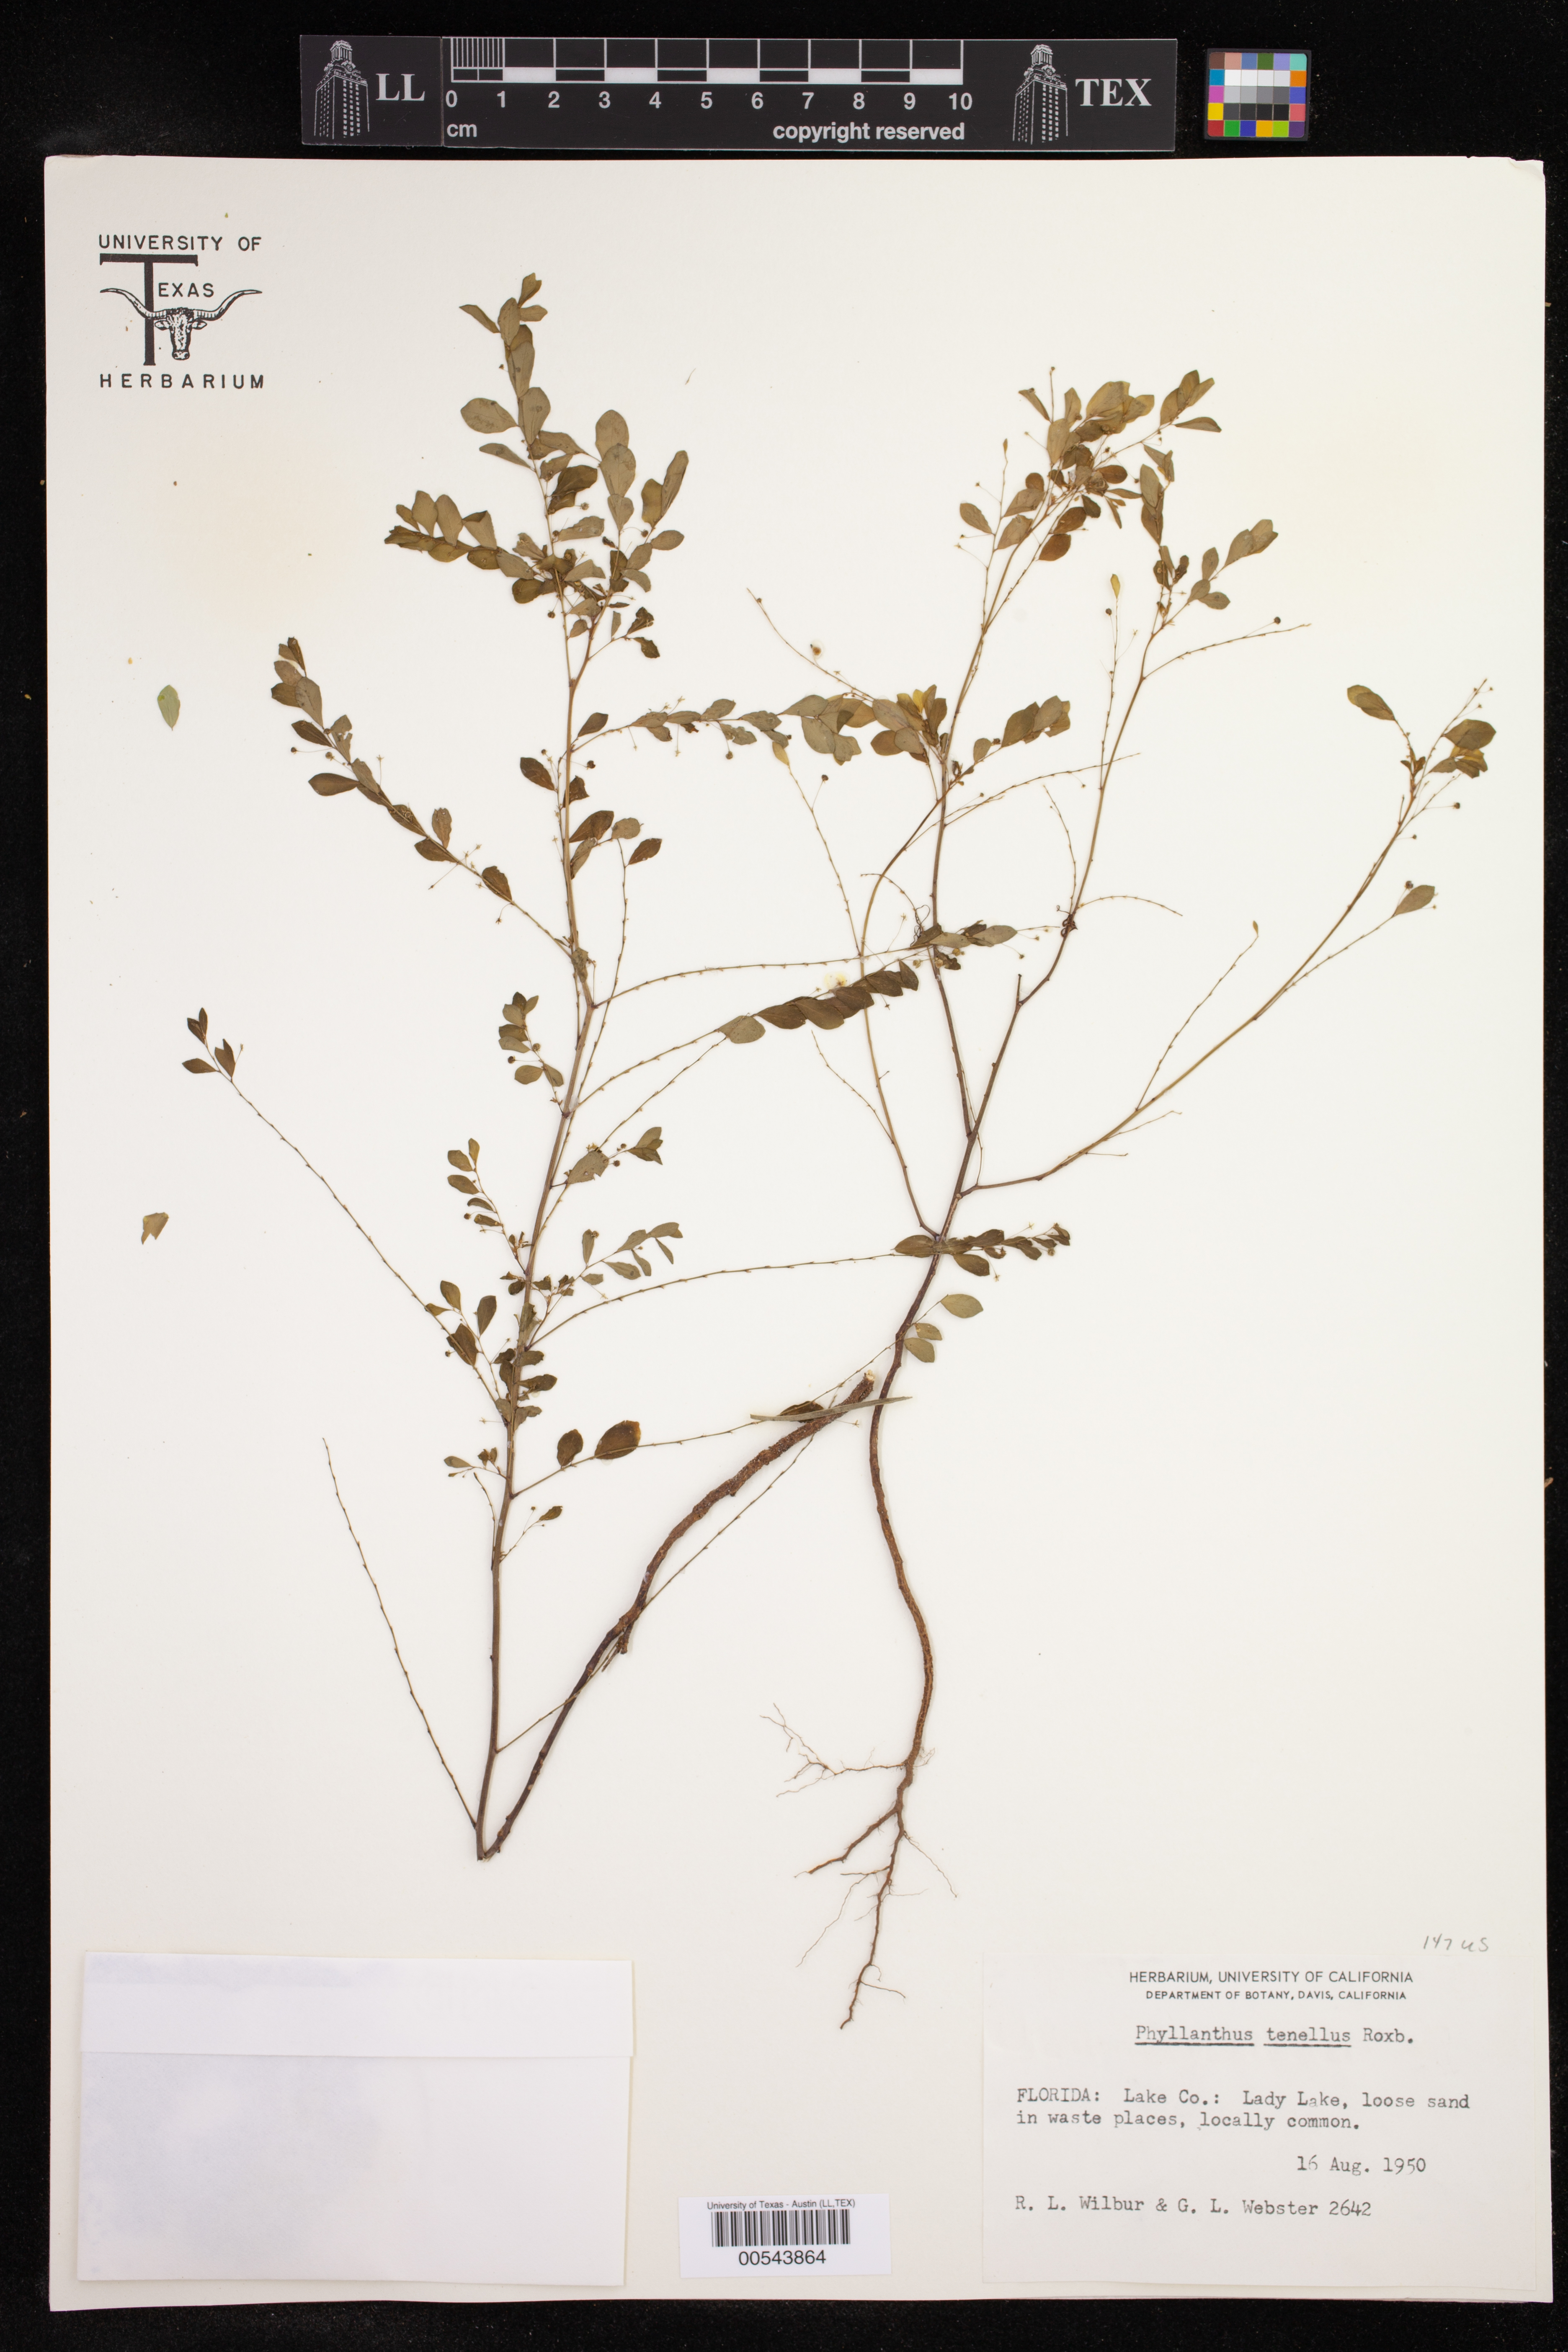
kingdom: Plantae
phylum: Tracheophyta
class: Magnoliopsida
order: Malpighiales
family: Phyllanthaceae
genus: Phyllanthus
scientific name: Phyllanthus tenellus
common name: Mascarene island leaf-flower
